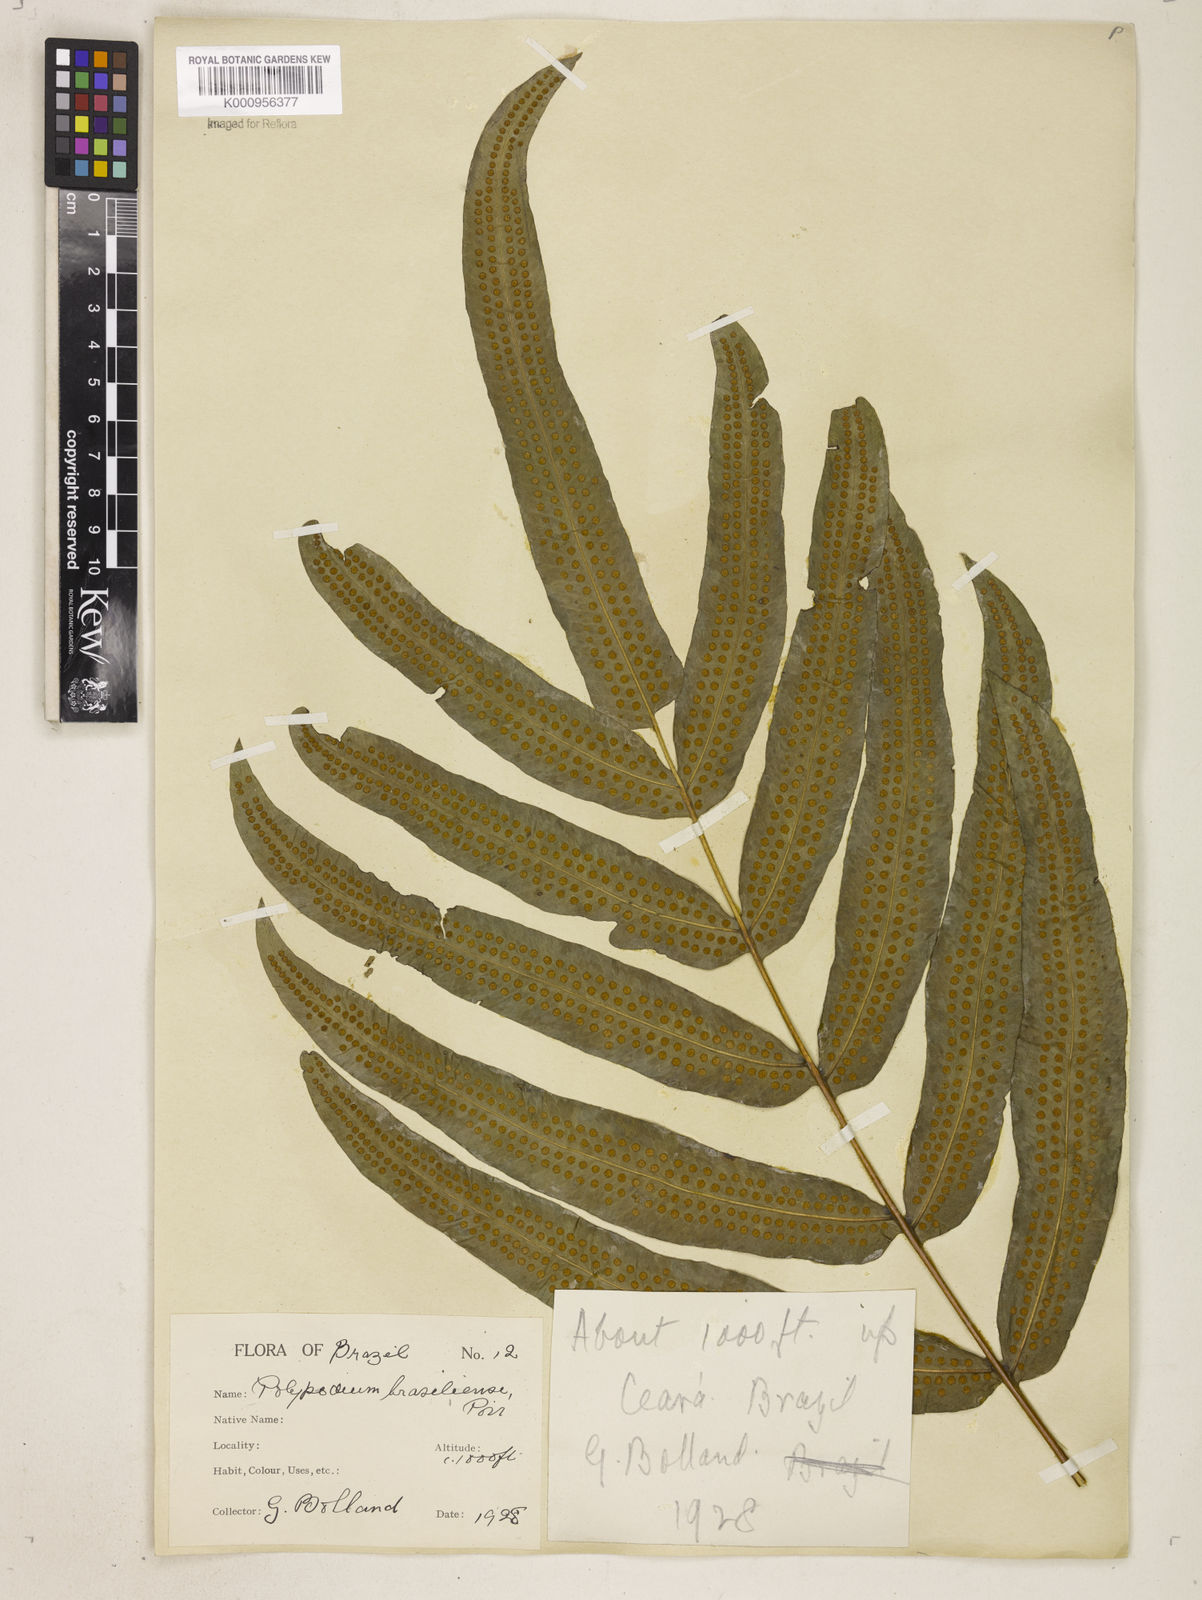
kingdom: Plantae
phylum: Tracheophyta
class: Polypodiopsida
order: Polypodiales
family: Polypodiaceae
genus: Serpocaulon
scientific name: Serpocaulon triseriale
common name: Angle-vein fern
